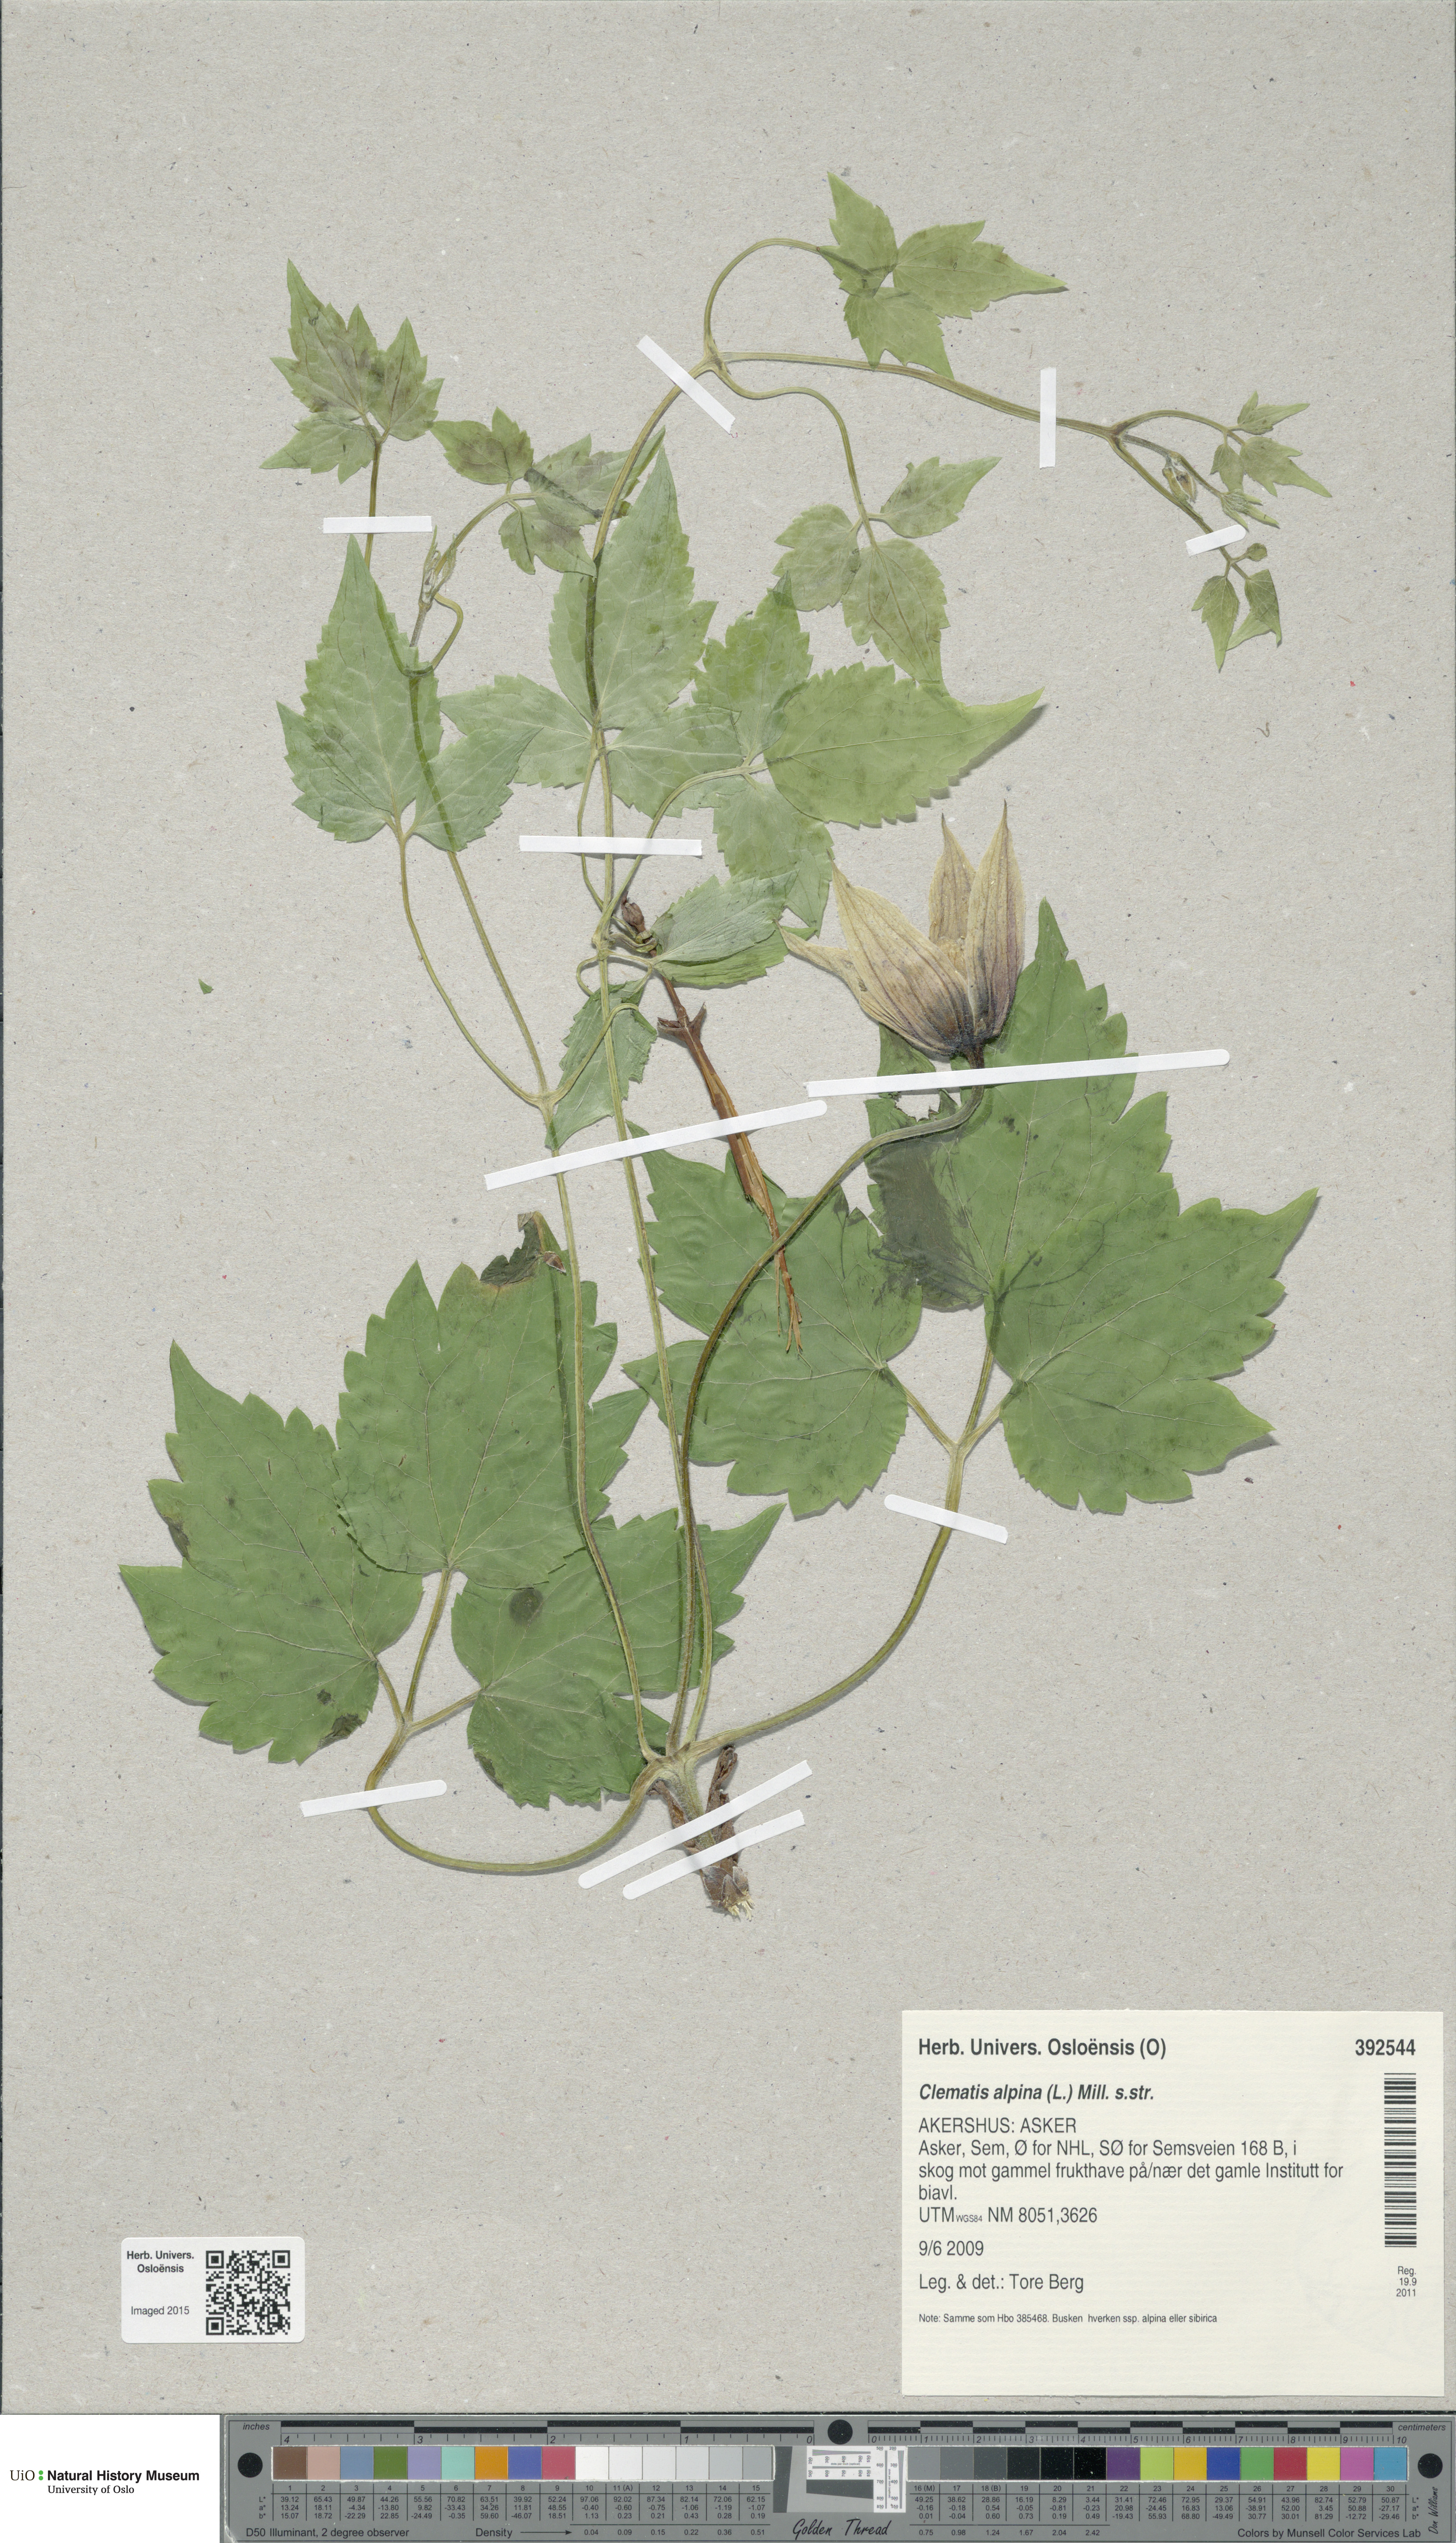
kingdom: Plantae
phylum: Tracheophyta
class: Magnoliopsida
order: Ranunculales
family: Ranunculaceae
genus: Clematis
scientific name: Clematis alpina
